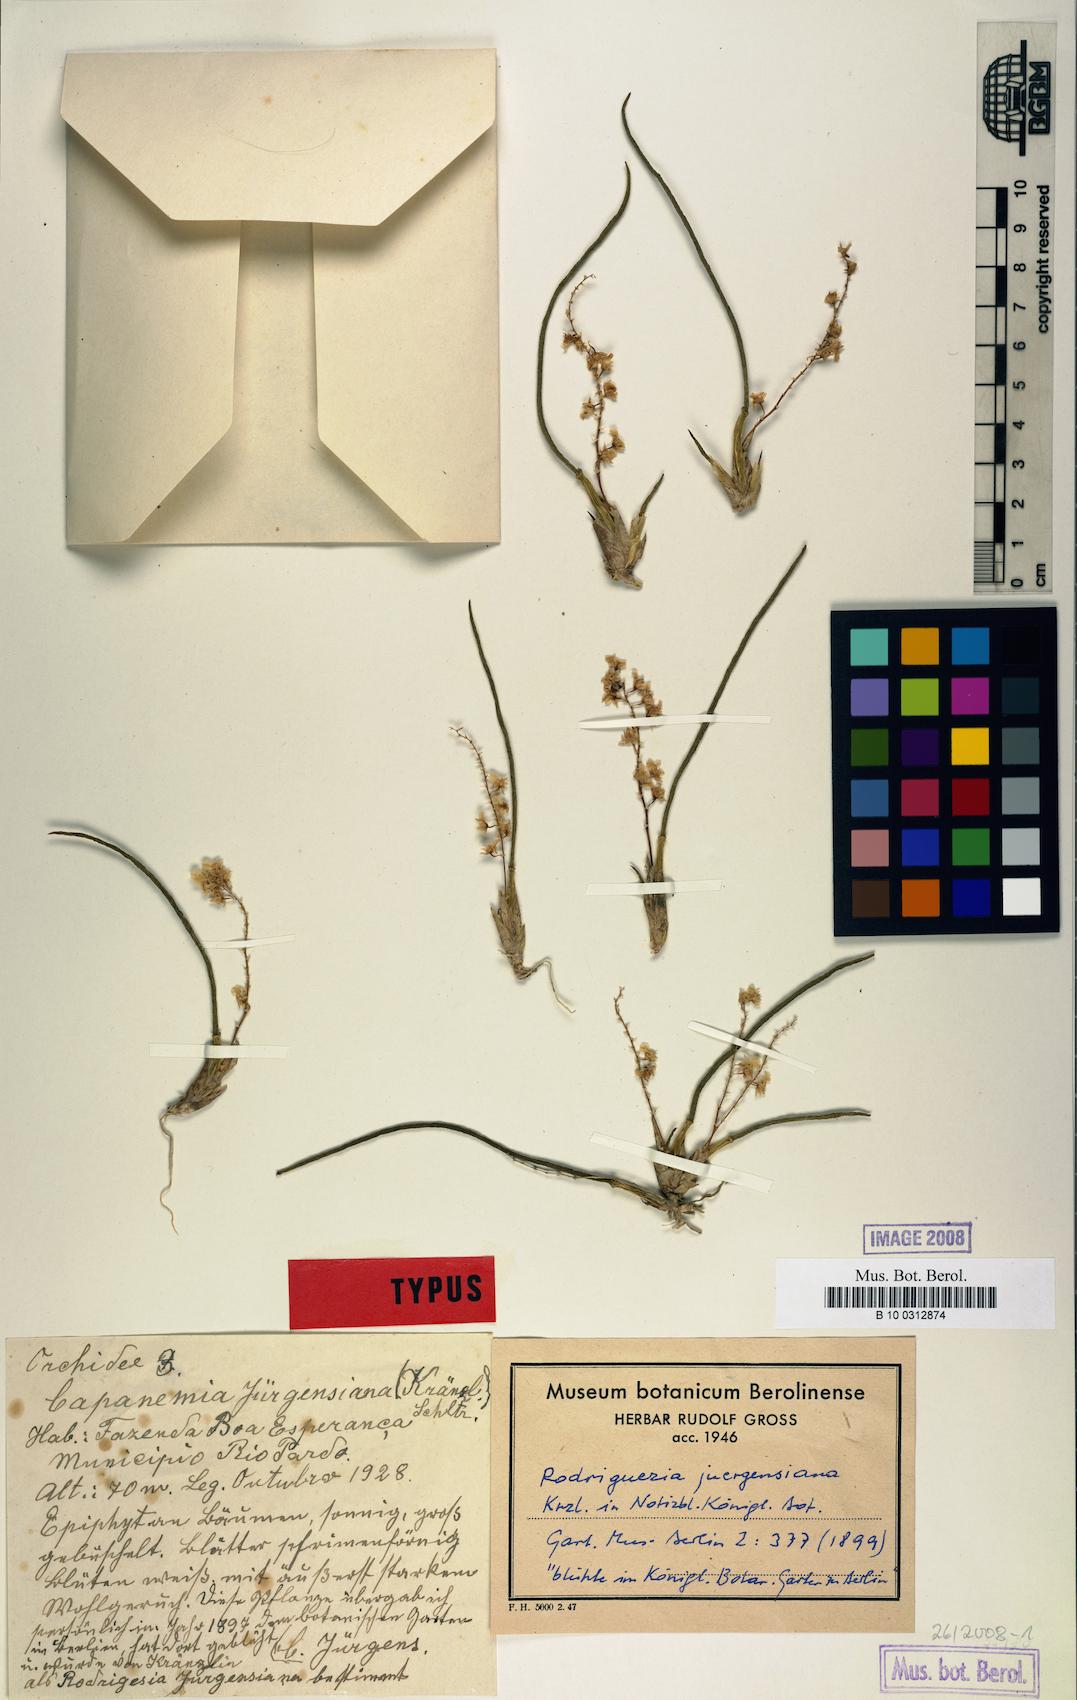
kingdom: Plantae
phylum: Tracheophyta
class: Liliopsida
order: Asparagales
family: Orchidaceae
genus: Capanemia
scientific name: Capanemia superflua
